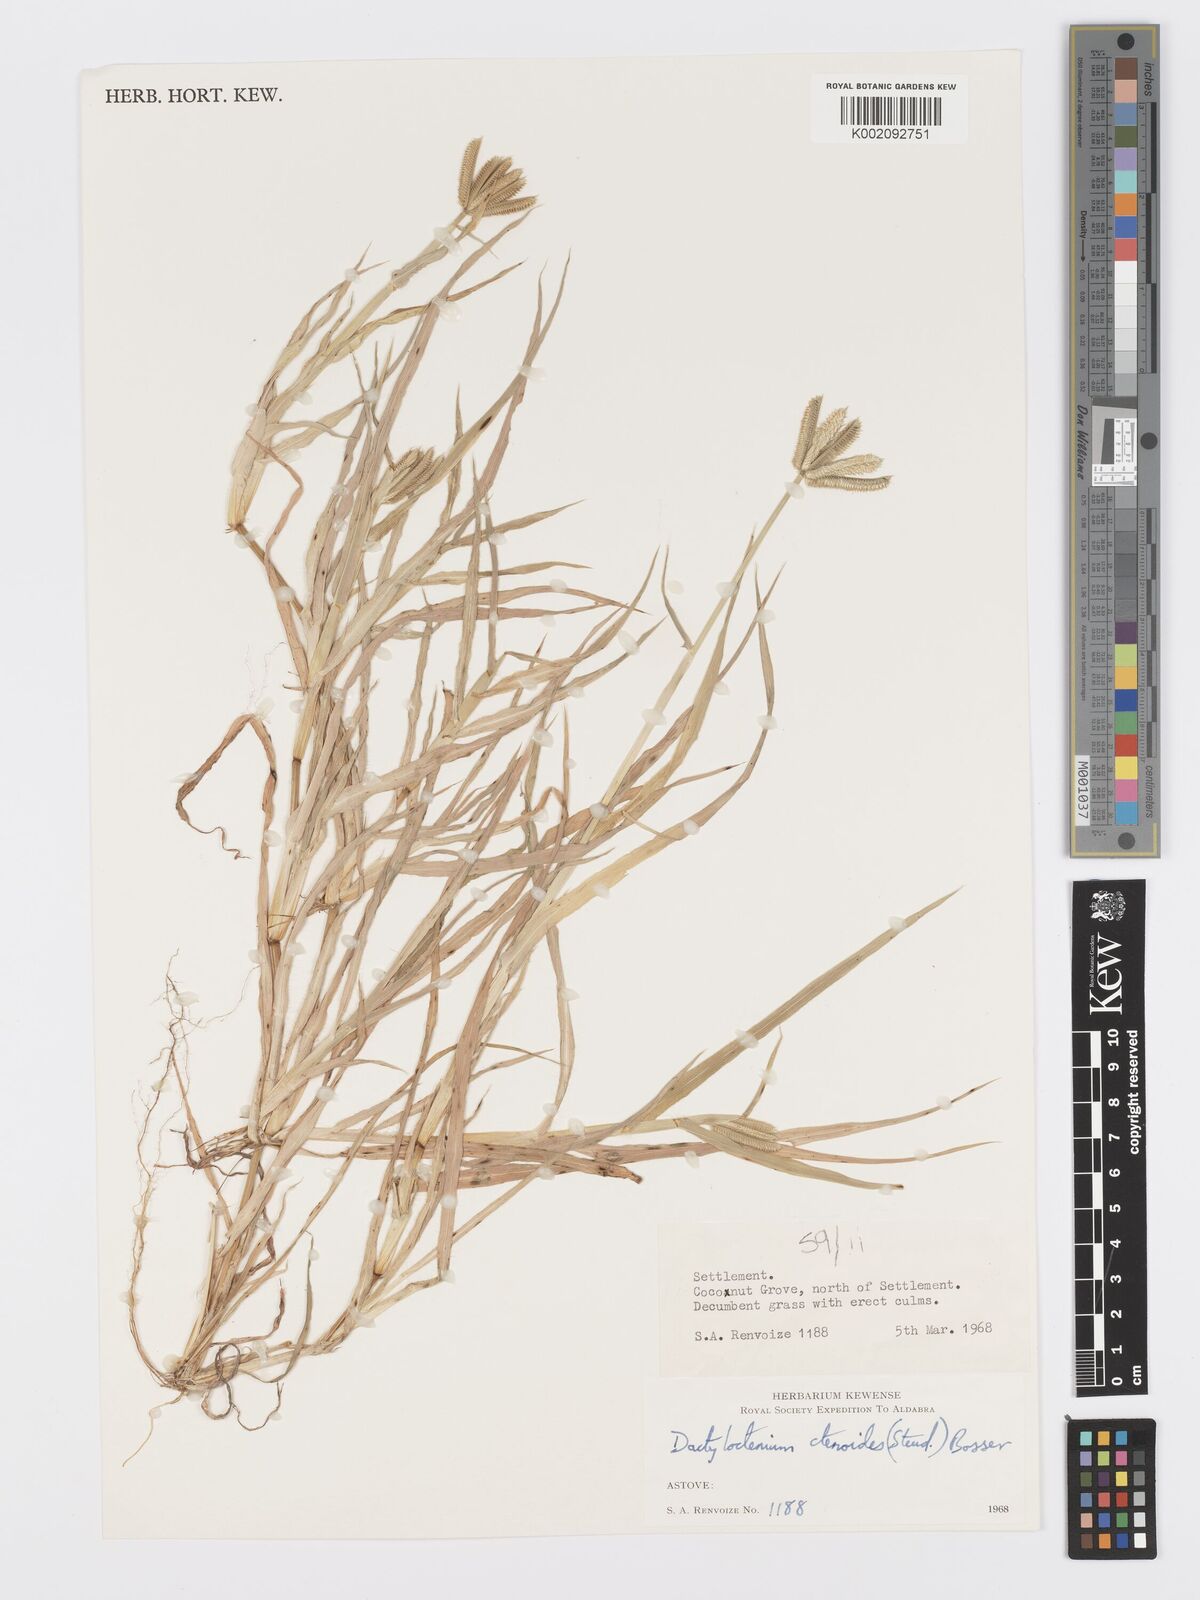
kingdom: Plantae
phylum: Tracheophyta
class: Liliopsida
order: Poales
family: Poaceae
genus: Dactyloctenium
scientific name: Dactyloctenium ctenoides
